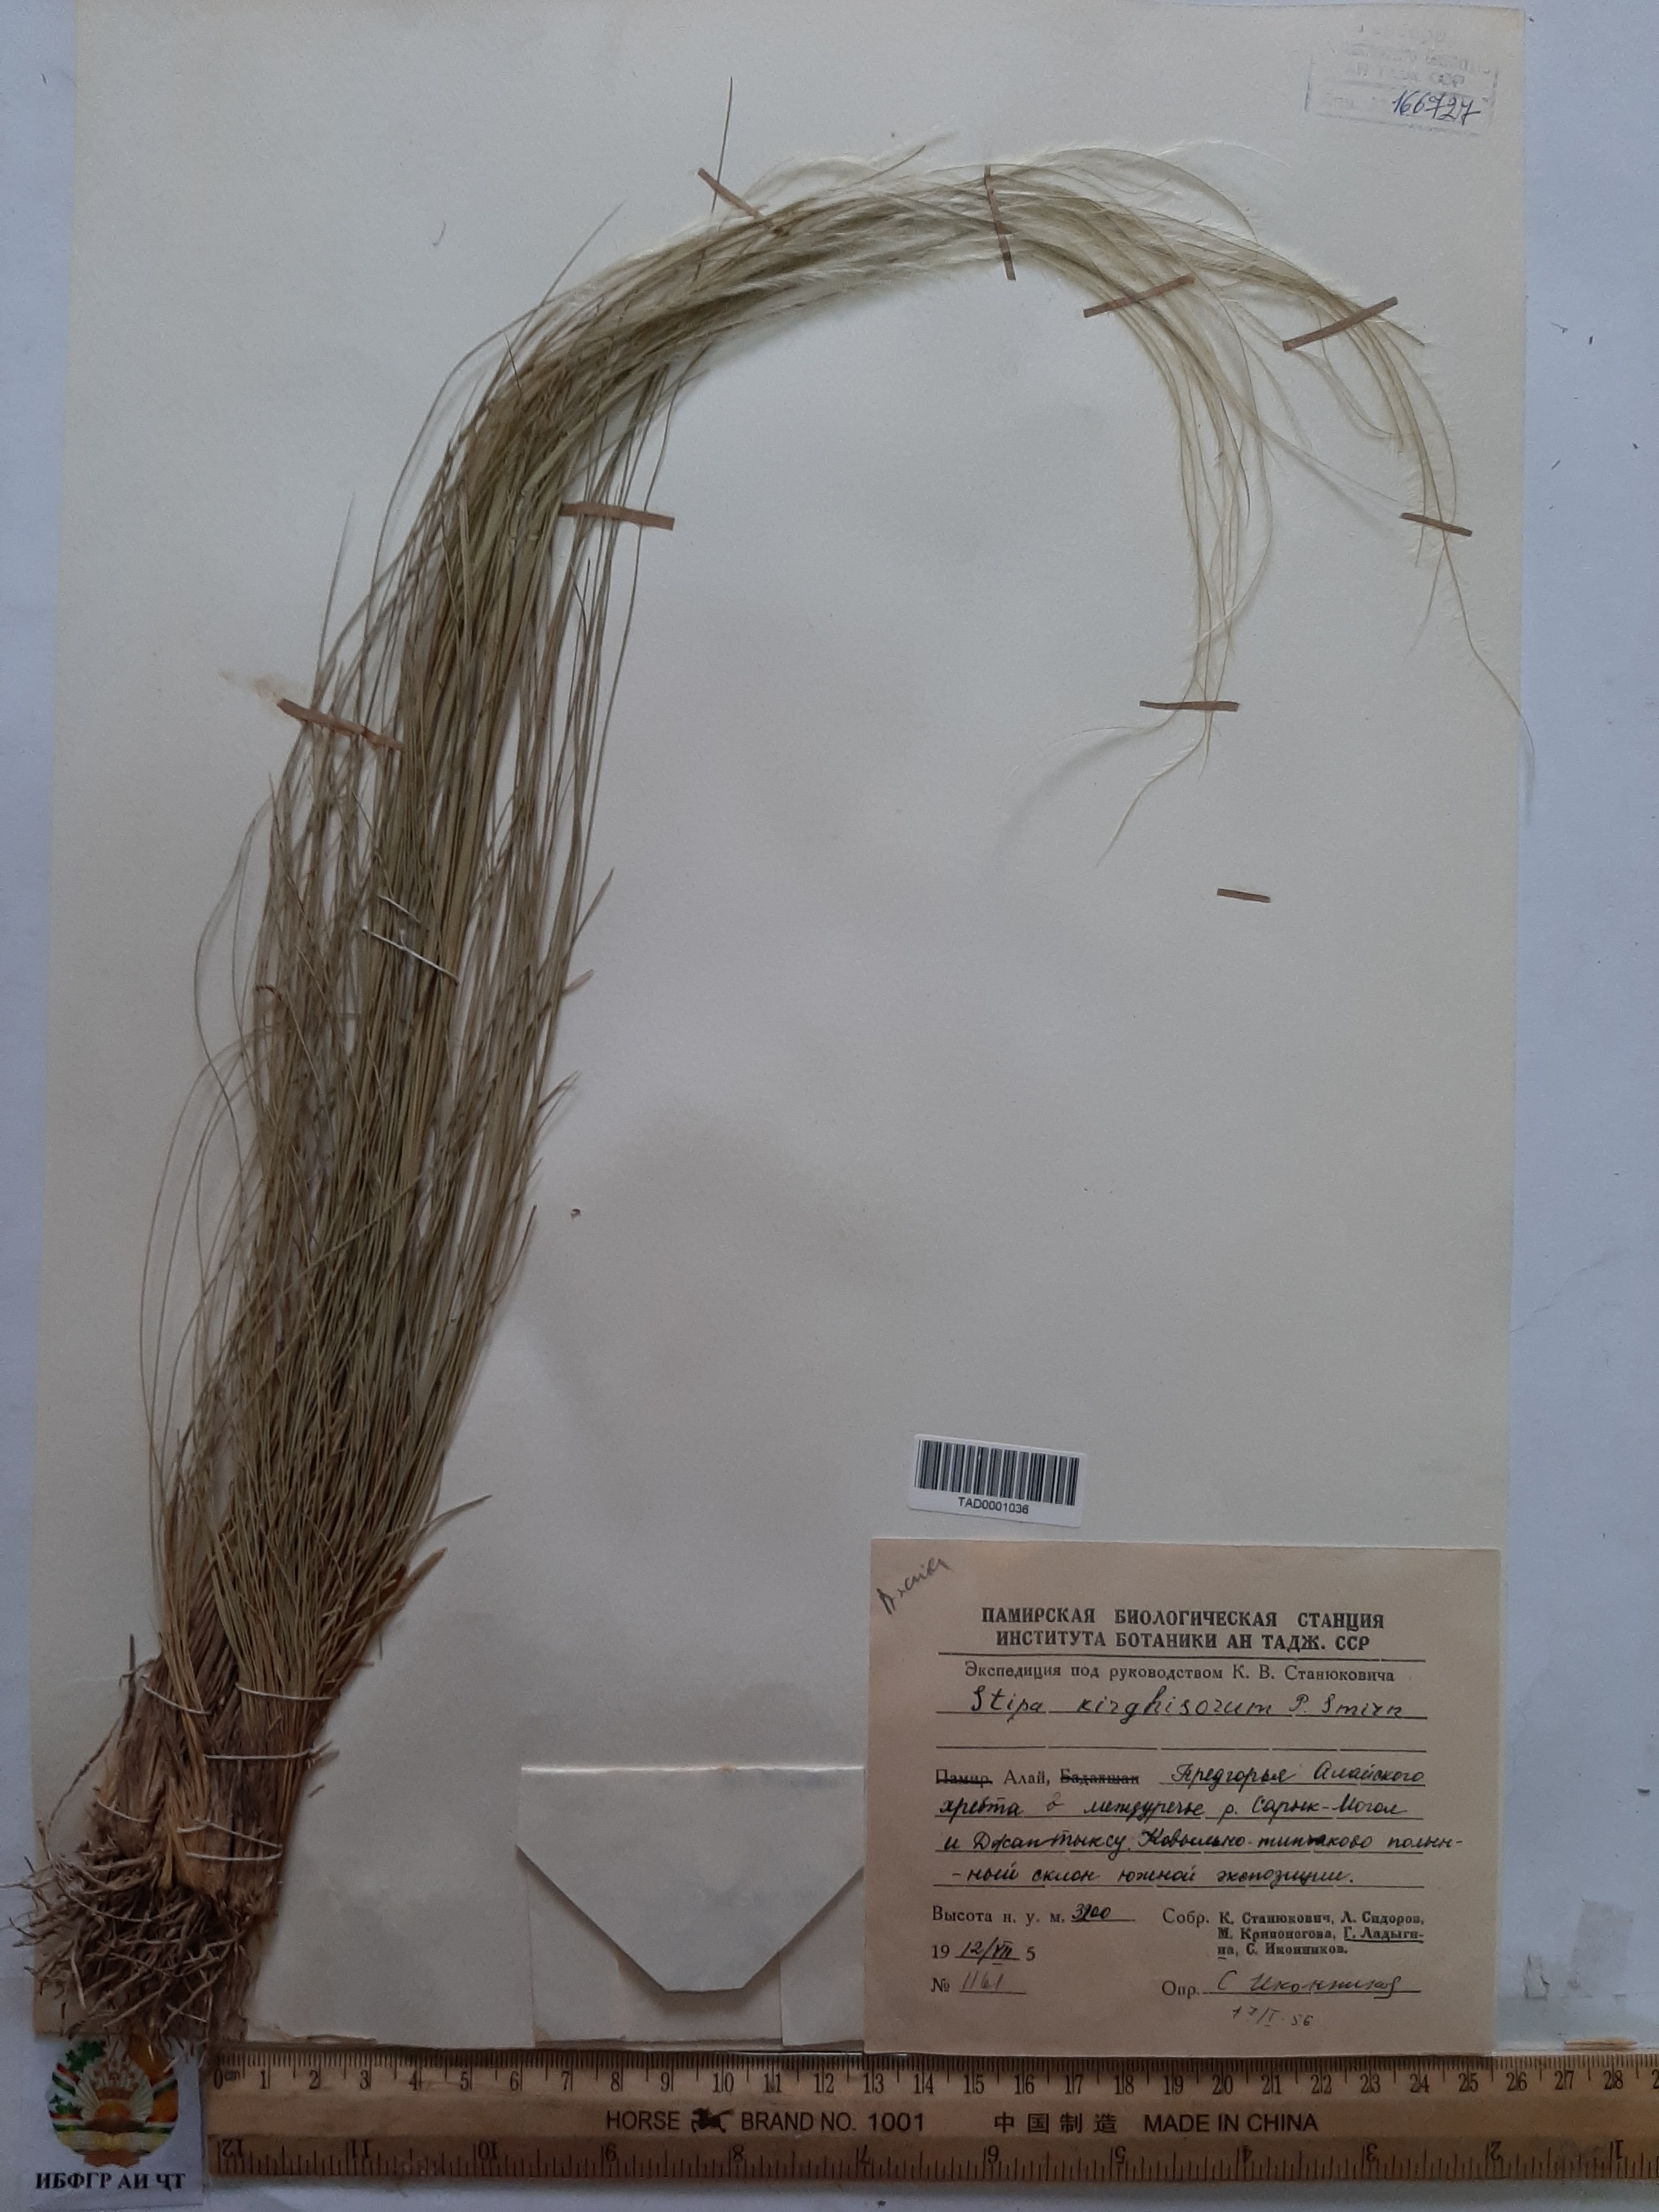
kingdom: Plantae
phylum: Tracheophyta
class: Liliopsida
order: Poales
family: Poaceae
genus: Stipa
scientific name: Stipa kirghisorum
